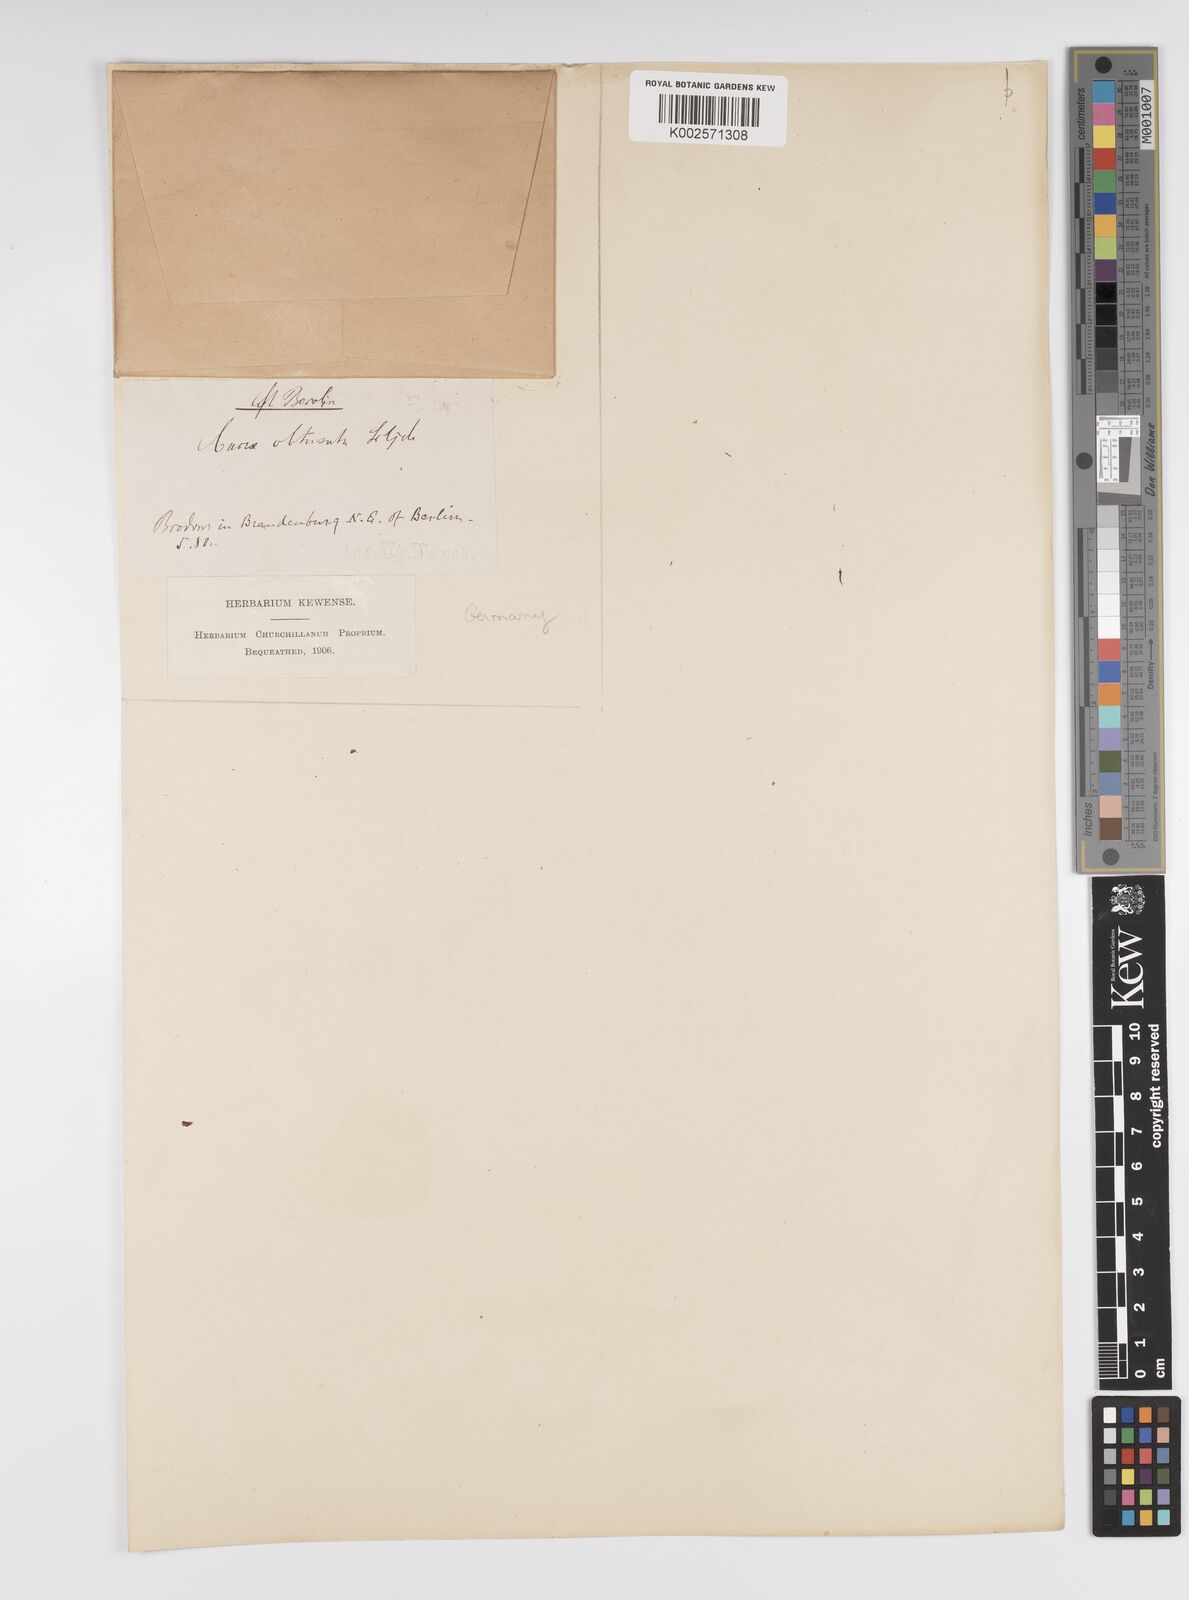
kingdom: Plantae
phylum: Tracheophyta
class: Liliopsida
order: Poales
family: Cyperaceae
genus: Carex
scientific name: Carex supina
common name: Lying-back sedge
